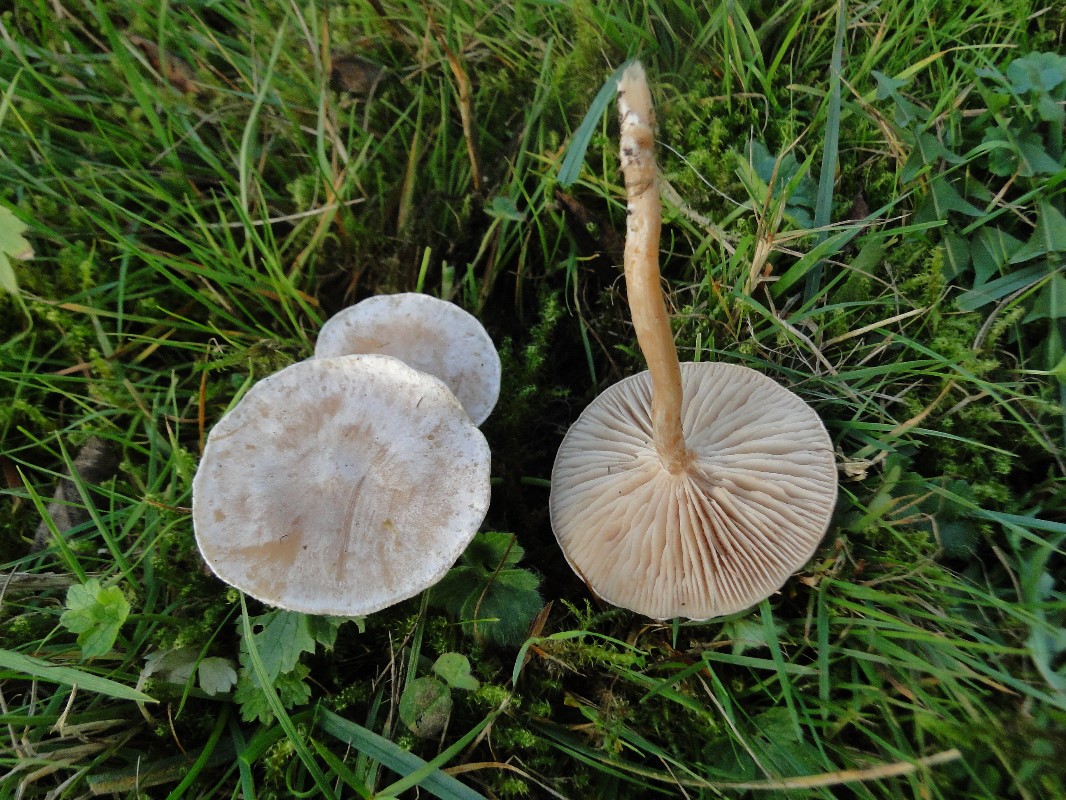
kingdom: Fungi
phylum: Basidiomycota
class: Agaricomycetes
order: Agaricales
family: Tricholomataceae
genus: Clitocybe
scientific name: Clitocybe rivulosa
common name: eng-tragthat
